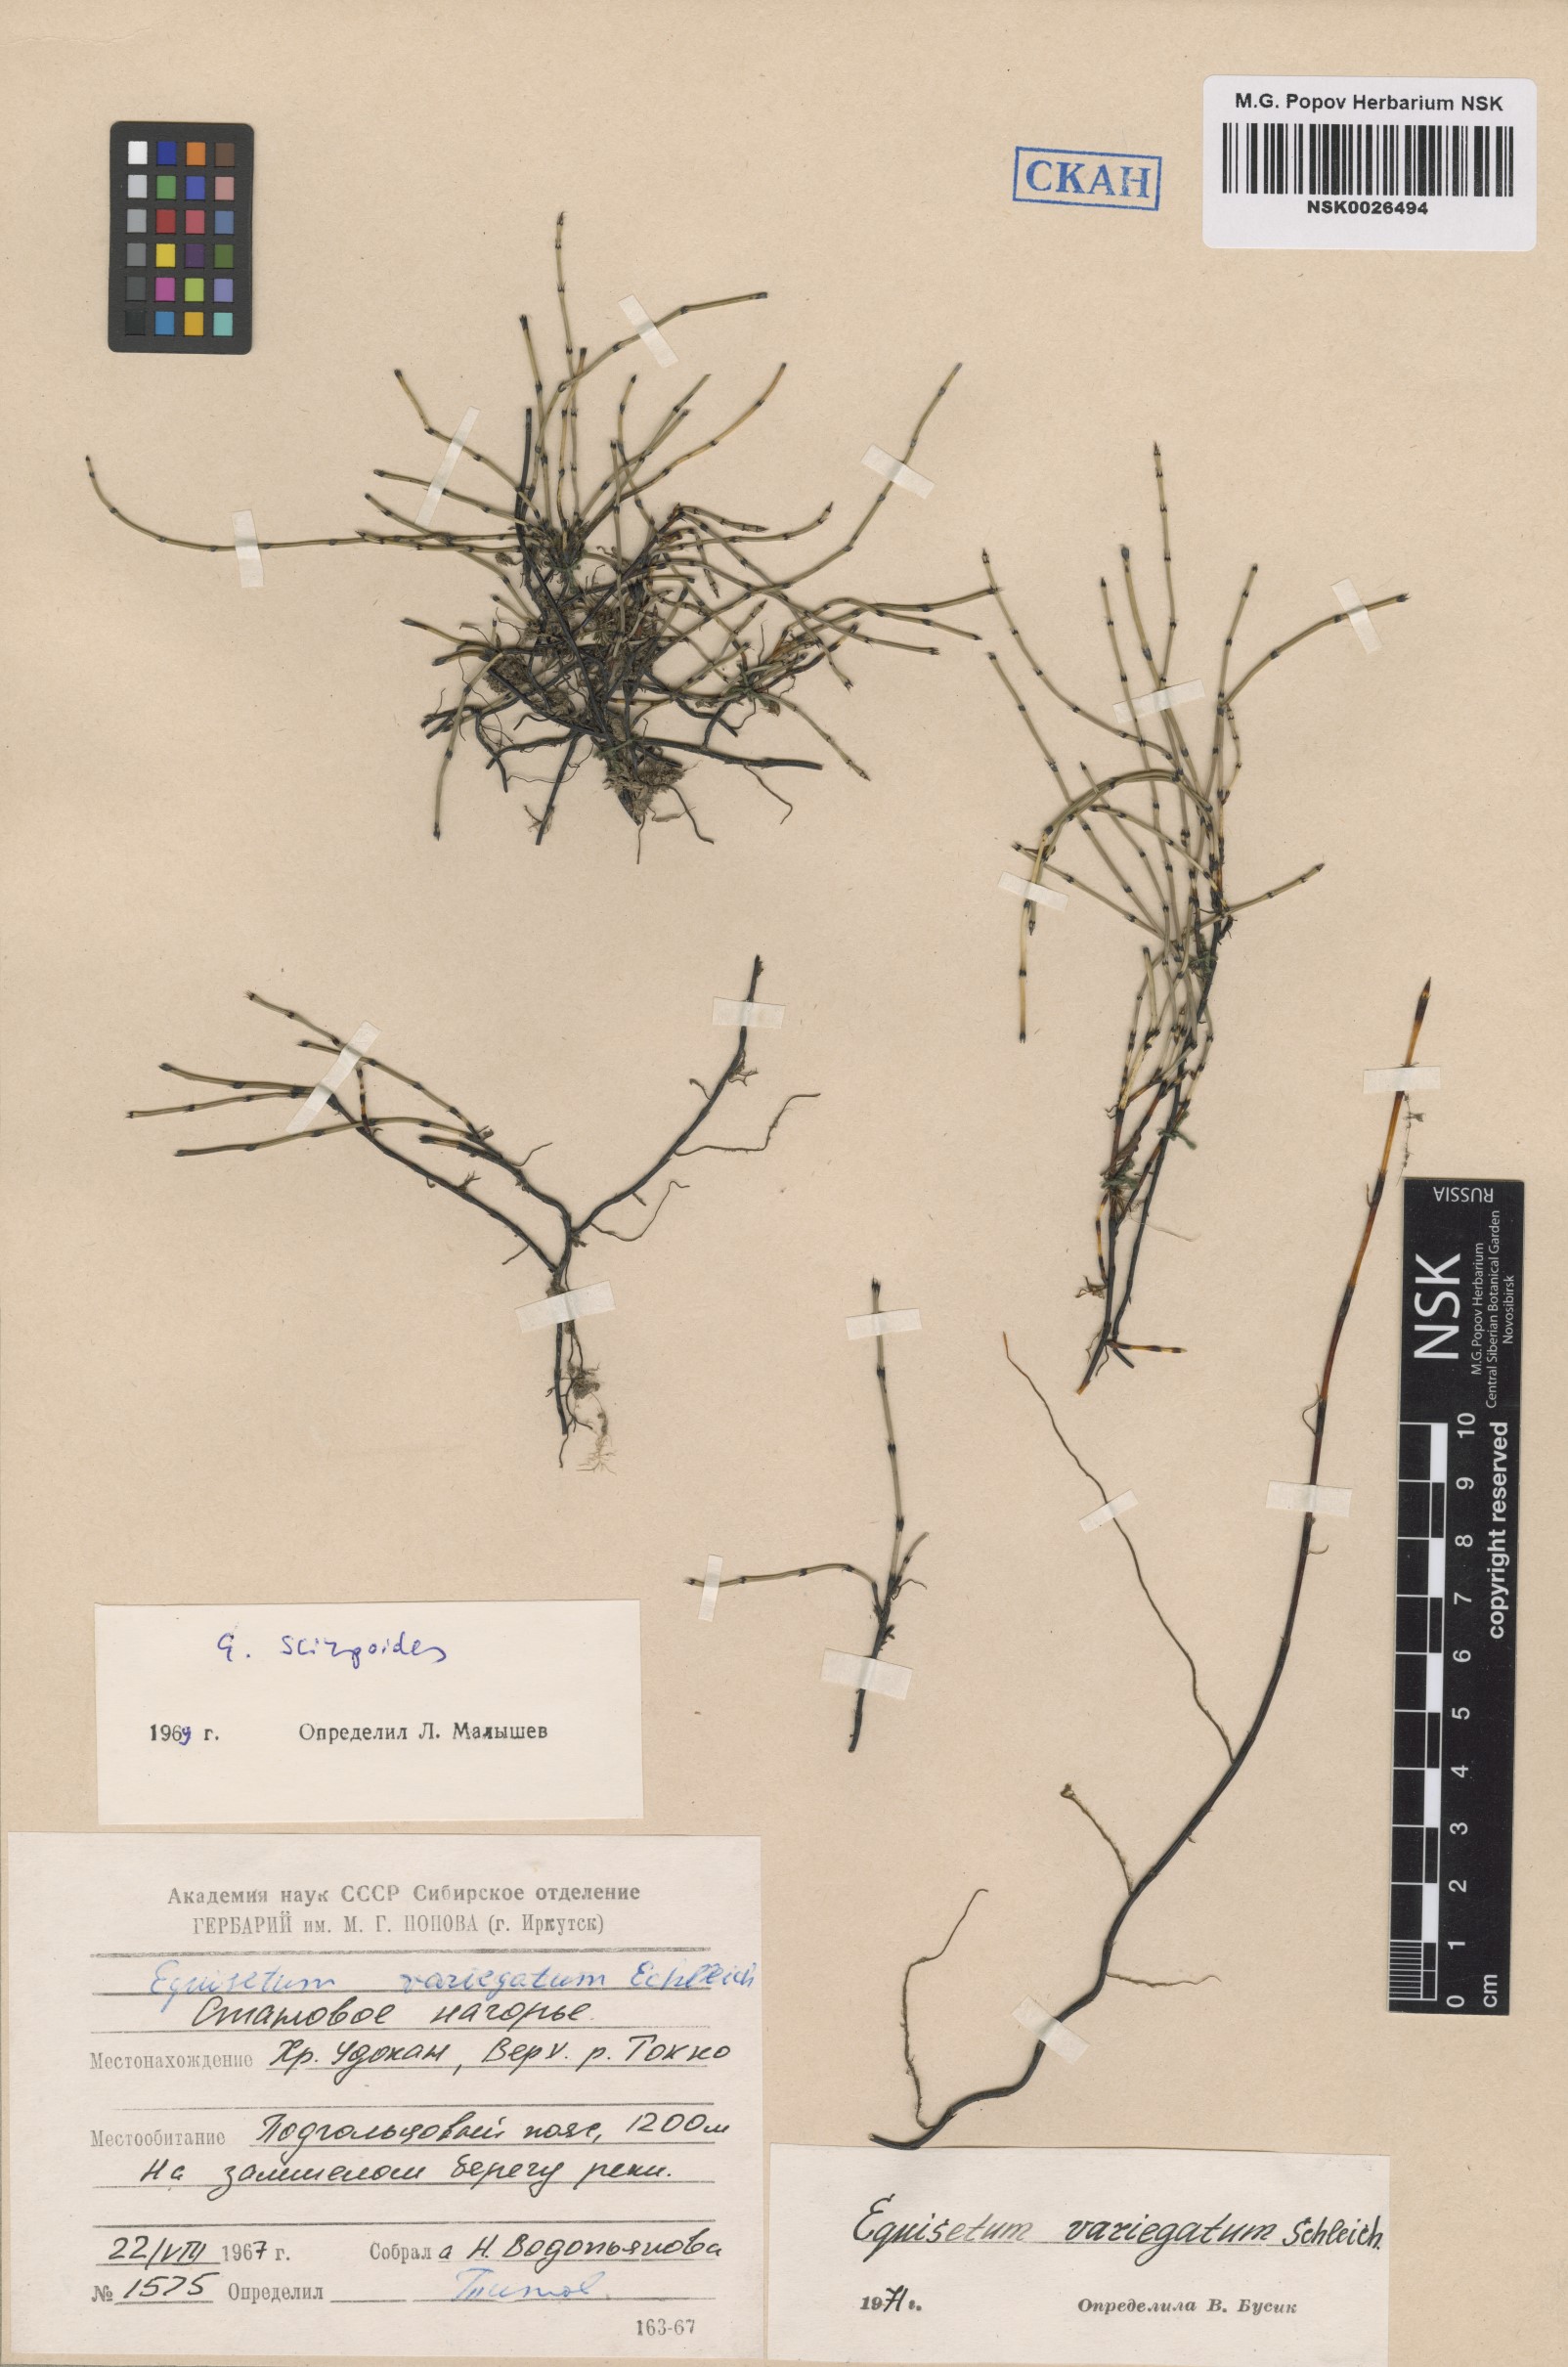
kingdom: Plantae
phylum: Tracheophyta
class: Polypodiopsida
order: Equisetales
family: Equisetaceae
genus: Equisetum
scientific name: Equisetum variegatum
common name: Variegated horsetail
